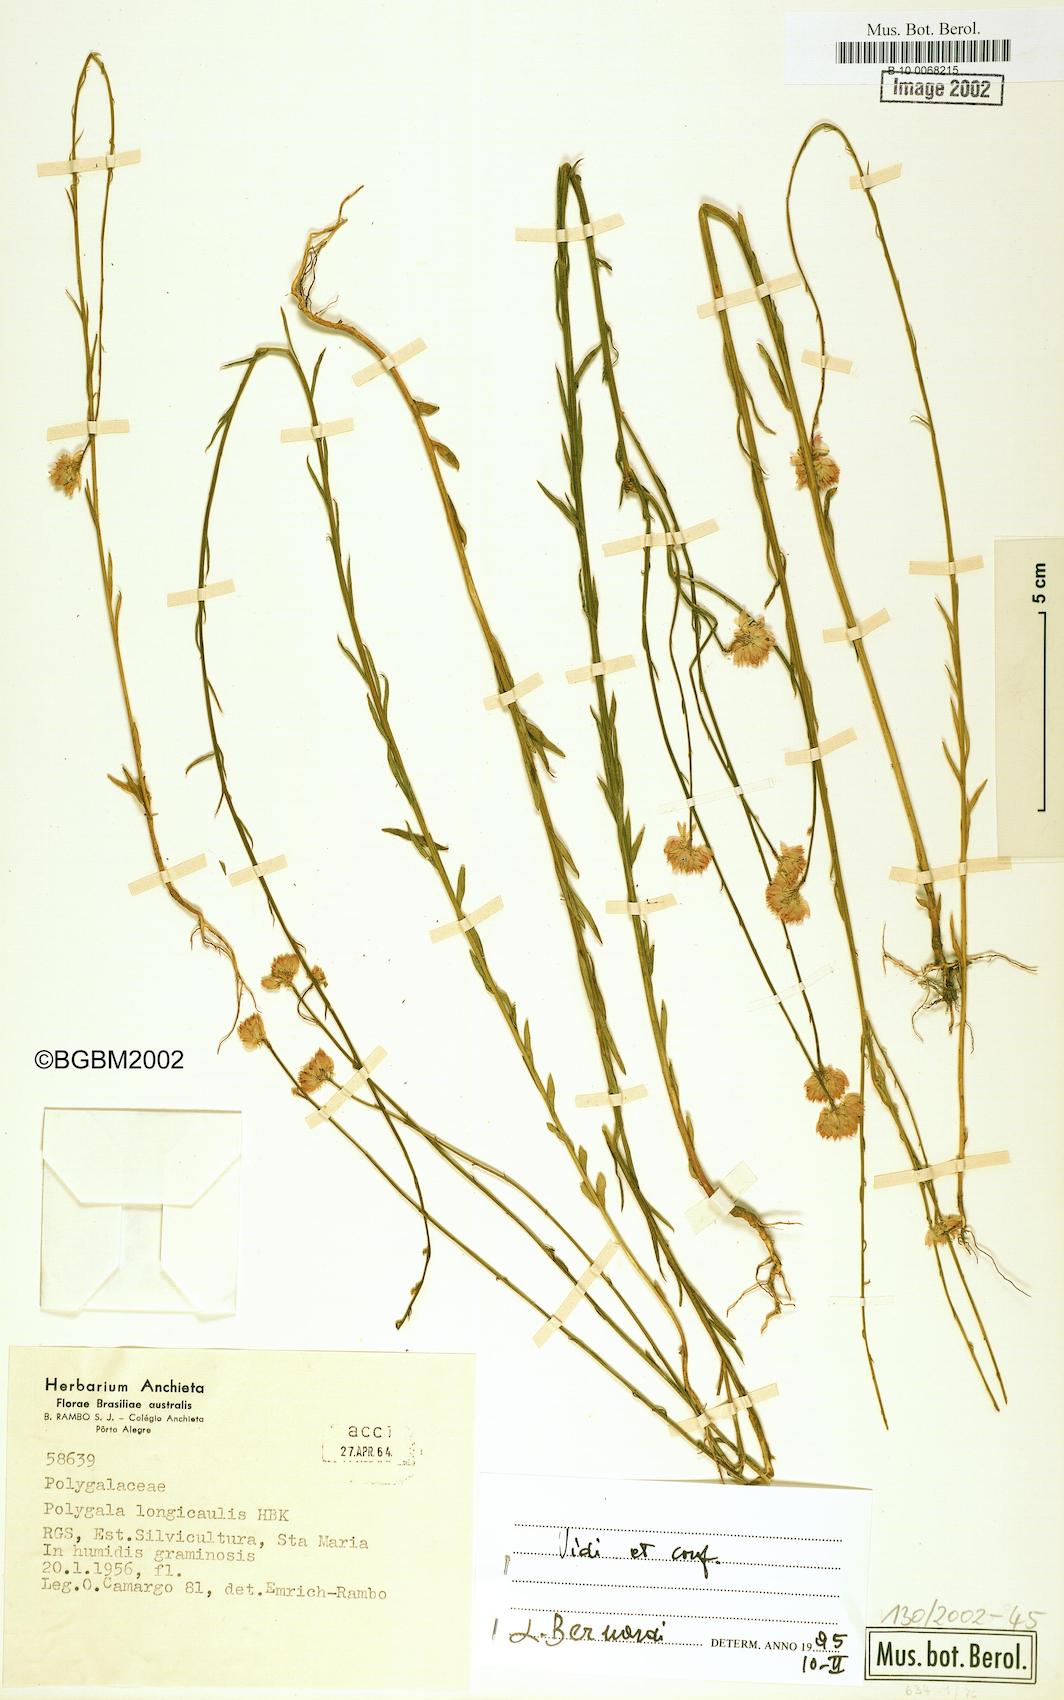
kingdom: Plantae
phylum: Tracheophyta
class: Magnoliopsida
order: Fabales
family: Polygalaceae
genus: Polygala
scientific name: Polygala longicaulis
